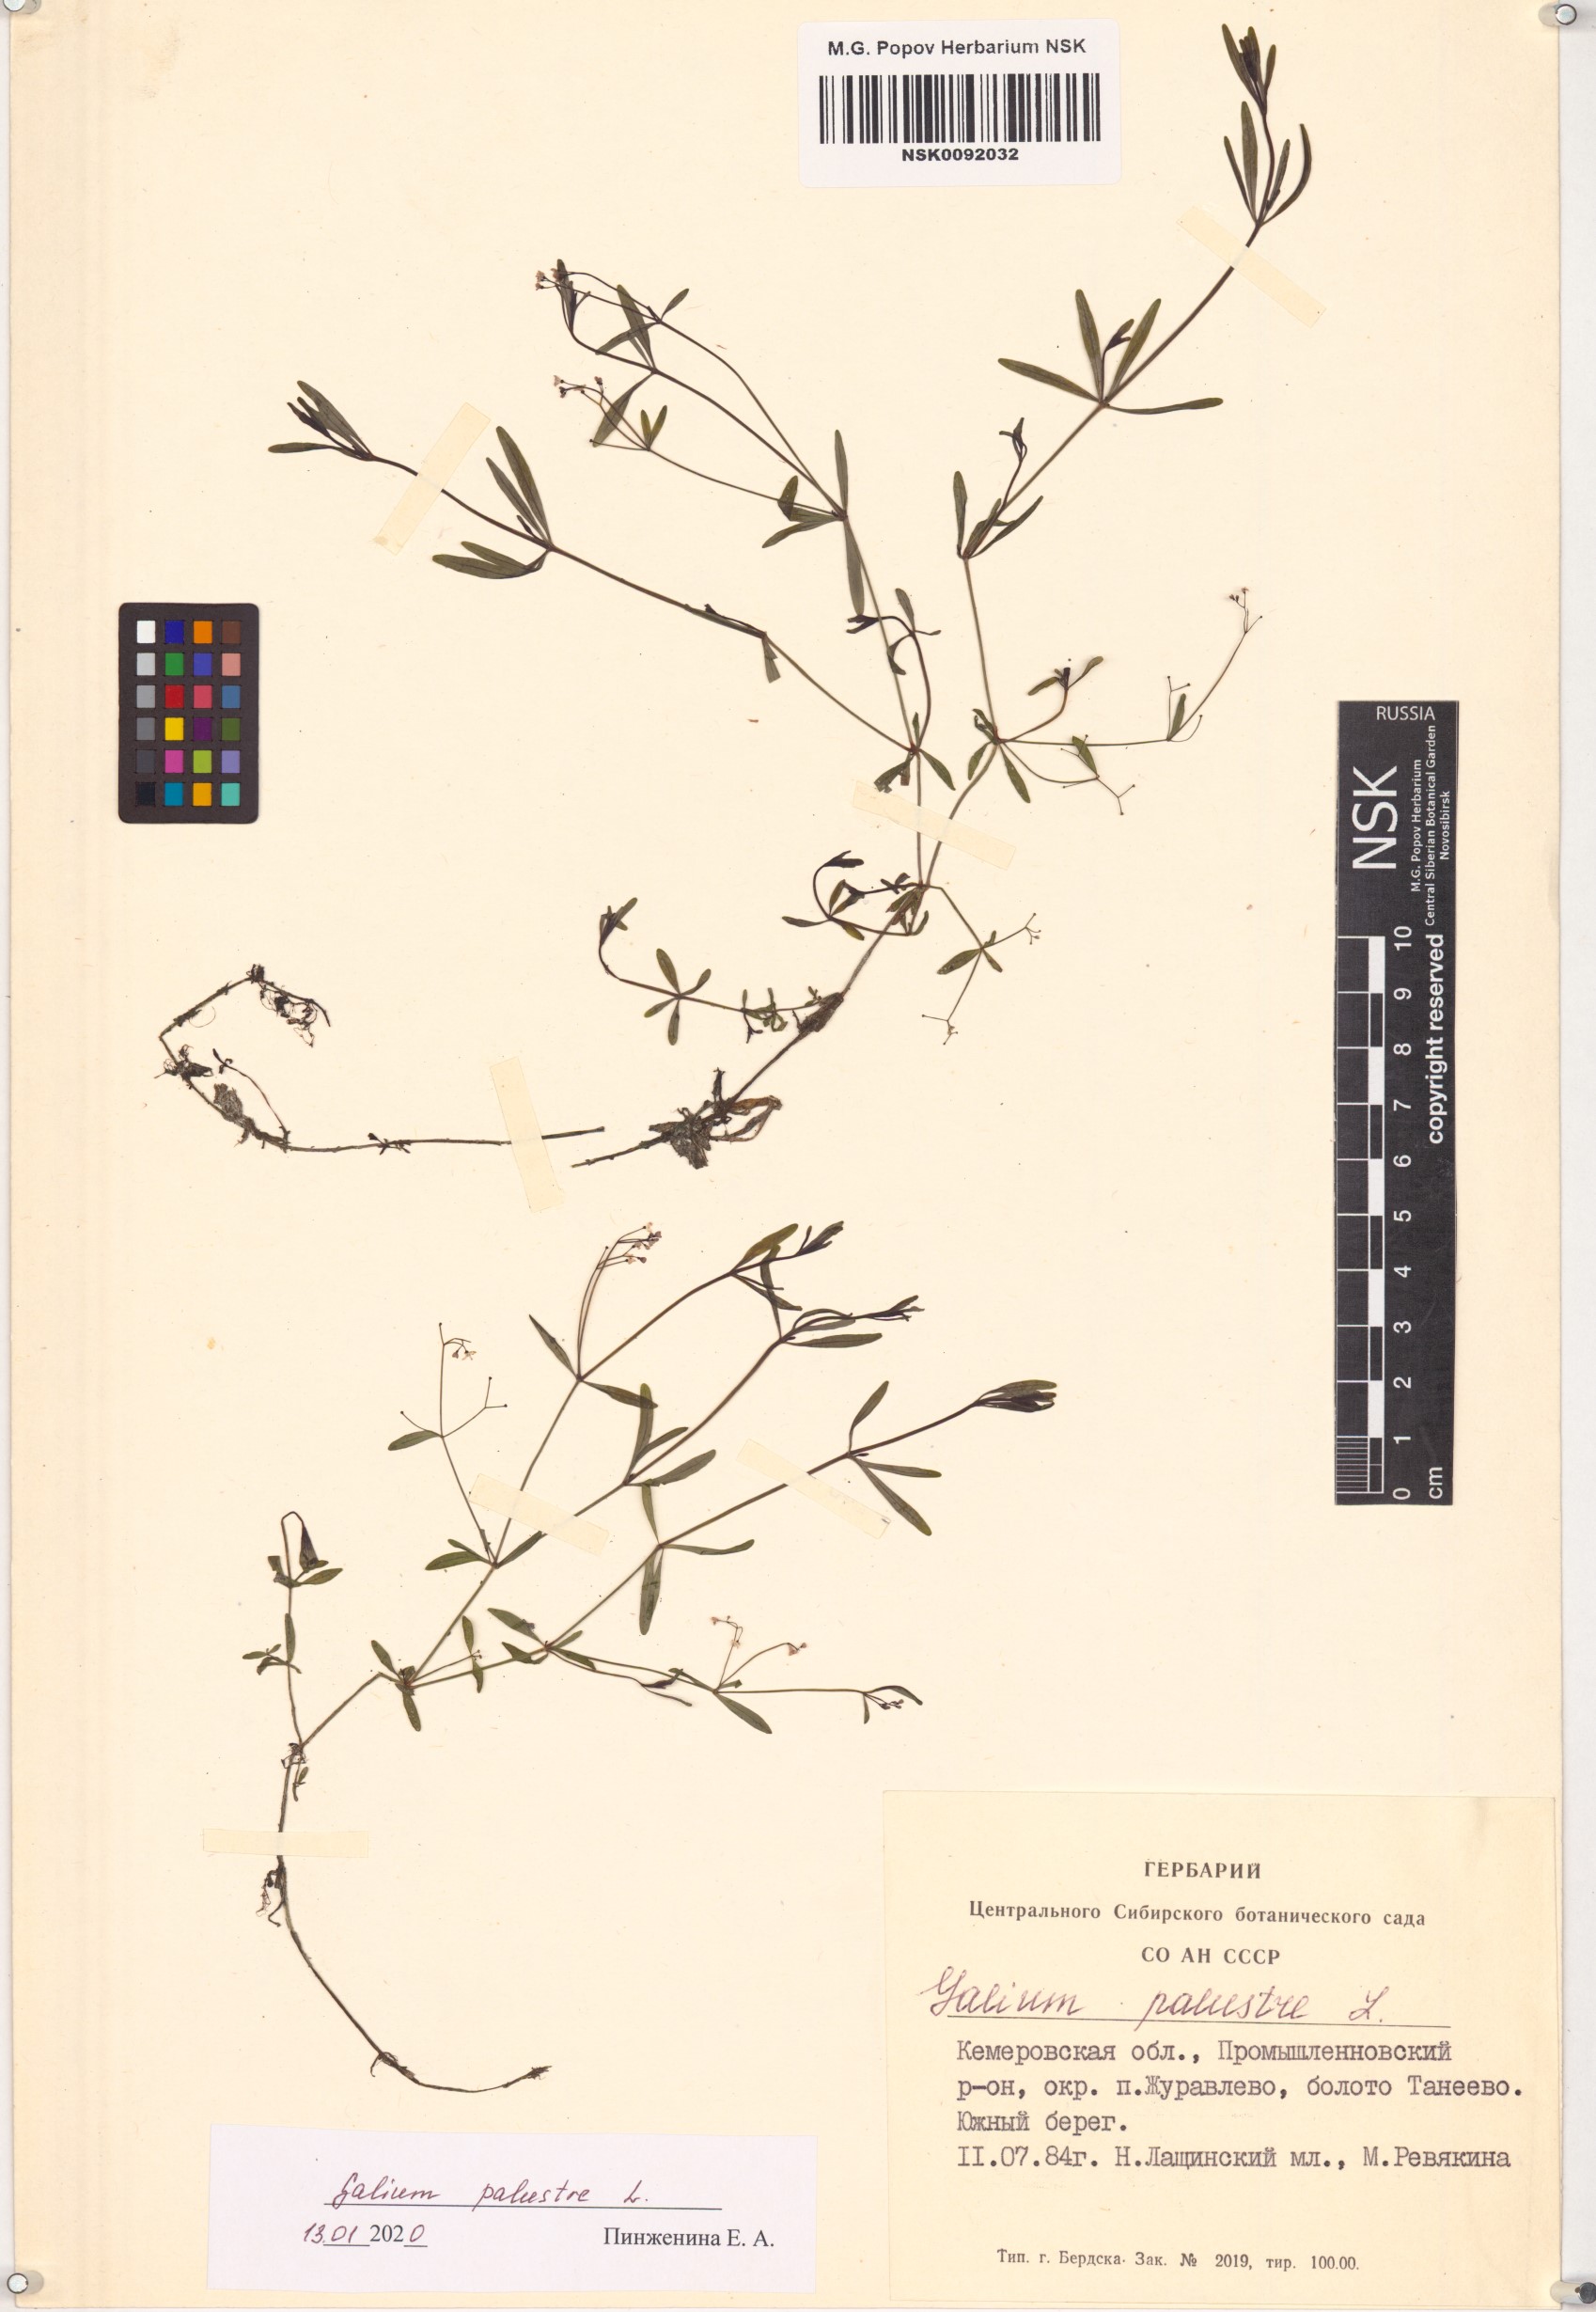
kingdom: Plantae
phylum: Tracheophyta
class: Magnoliopsida
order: Gentianales
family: Rubiaceae
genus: Galium
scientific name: Galium palustre
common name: Common marsh-bedstraw
